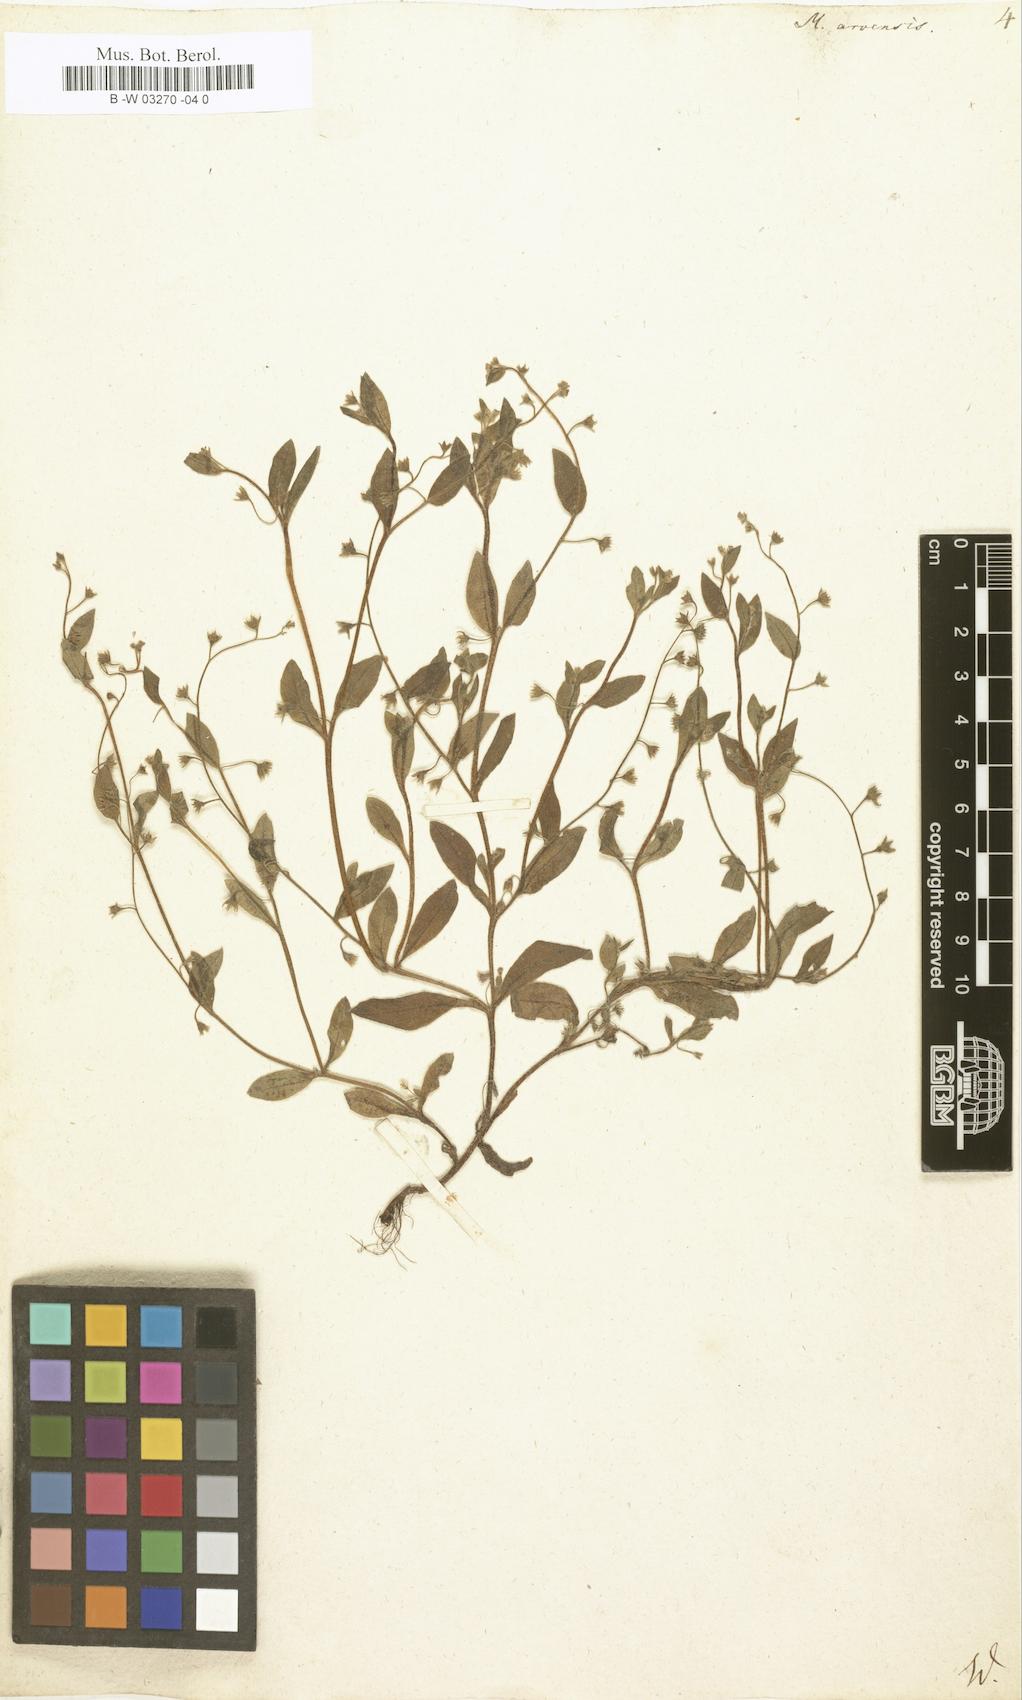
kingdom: Plantae
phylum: Tracheophyta
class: Magnoliopsida
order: Boraginales
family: Boraginaceae
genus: Myosotis
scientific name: Myosotis arvensis
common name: Field forget-me-not
